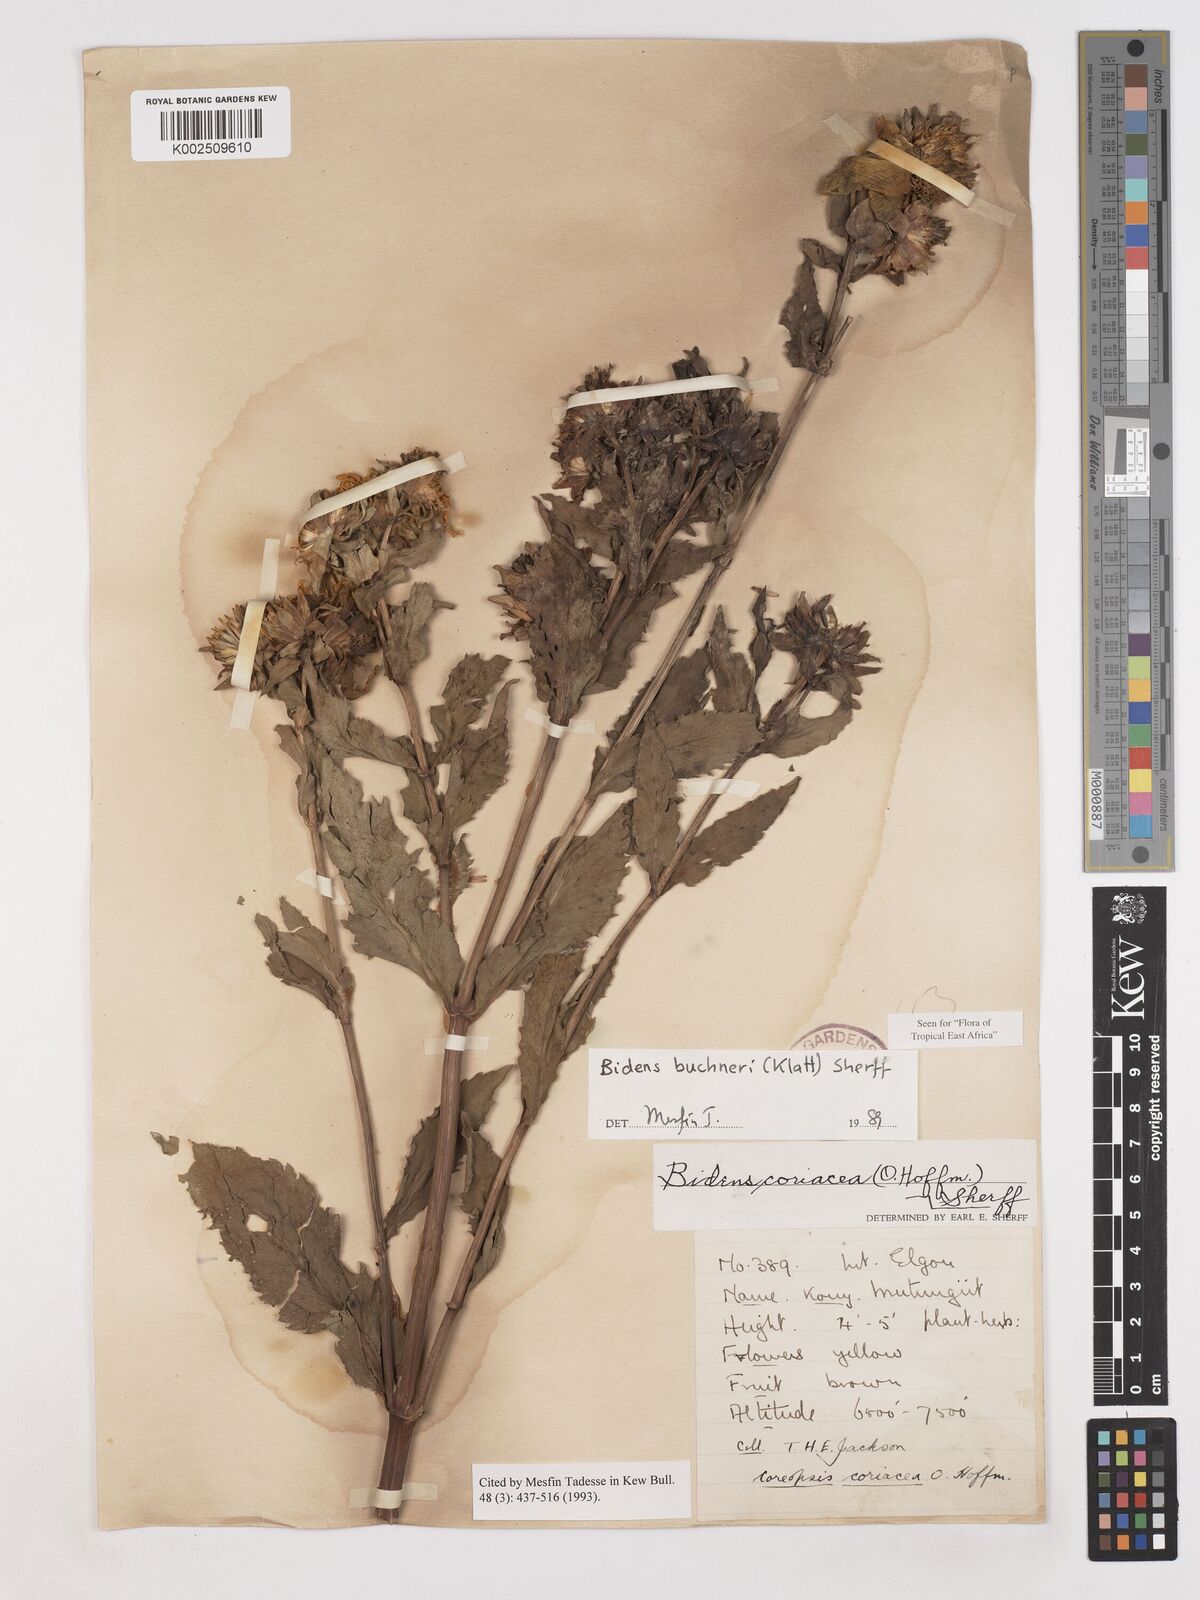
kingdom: Plantae
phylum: Tracheophyta
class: Magnoliopsida
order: Asterales
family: Asteraceae
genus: Bidens
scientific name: Bidens buchneri
